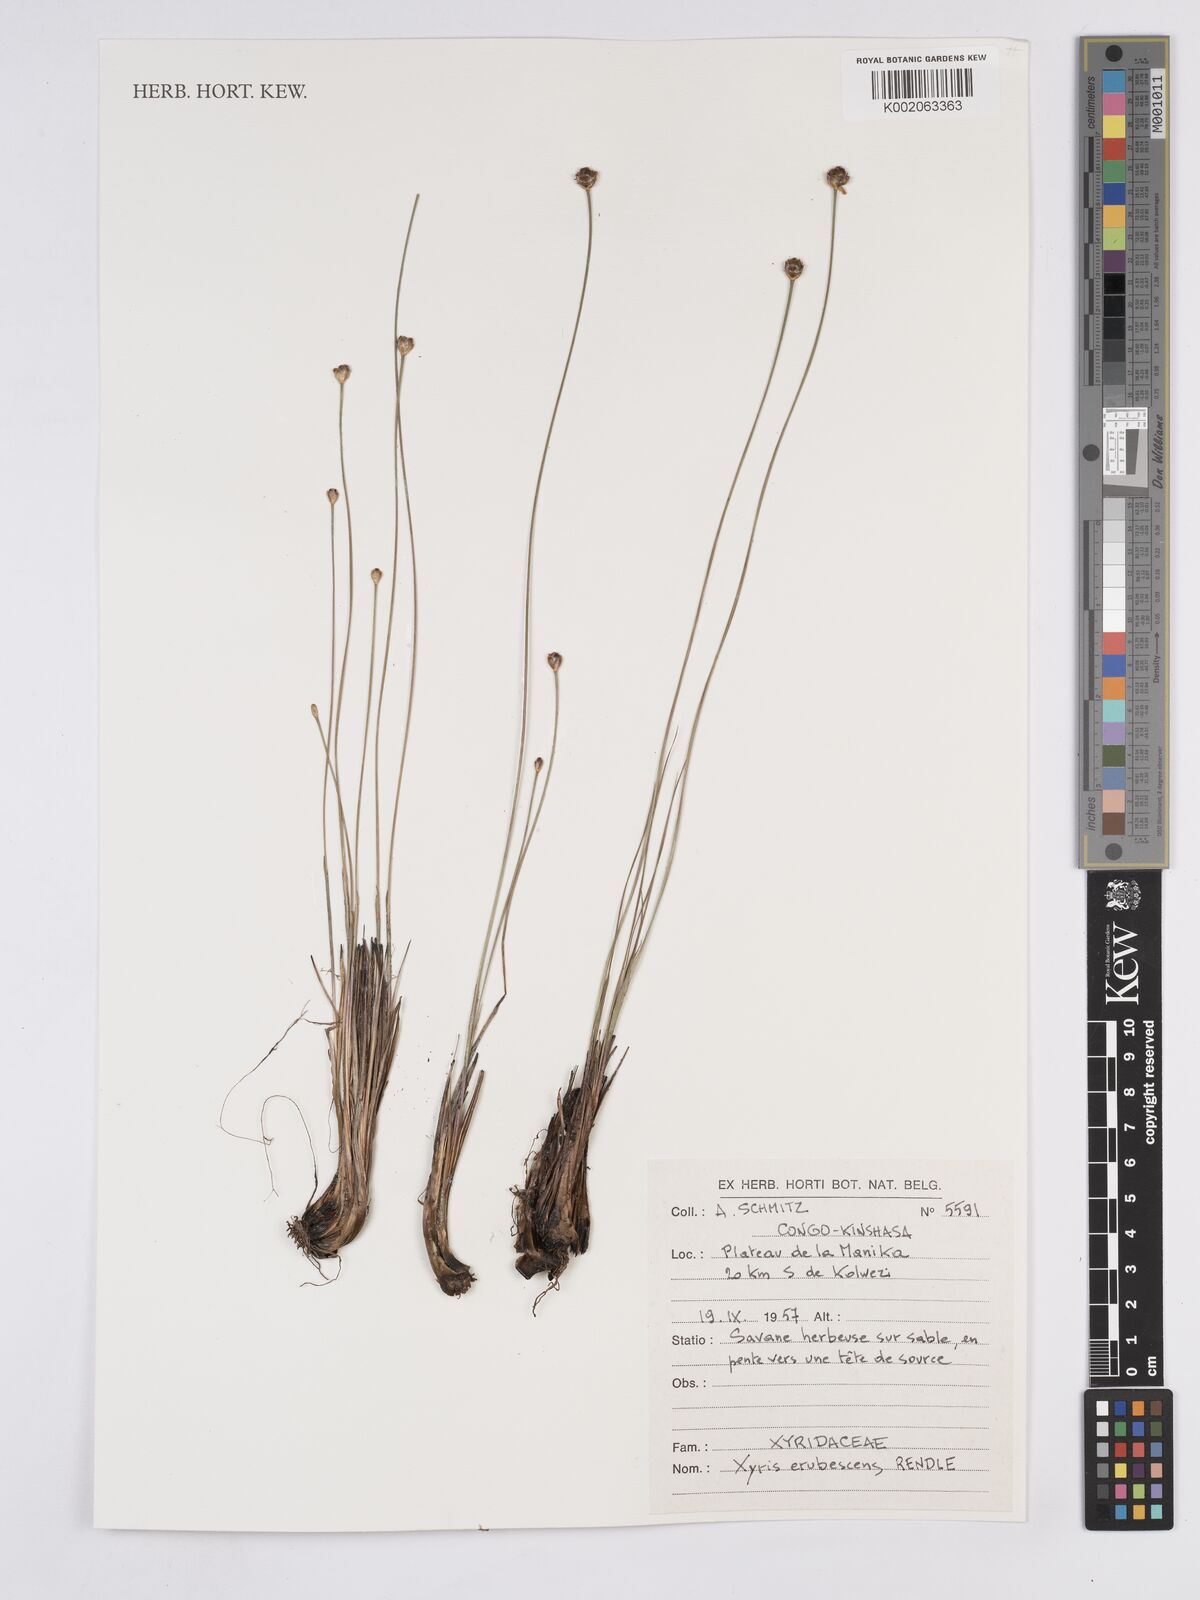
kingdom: Plantae
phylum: Tracheophyta
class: Liliopsida
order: Poales
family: Xyridaceae
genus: Xyris
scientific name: Xyris erubescens
